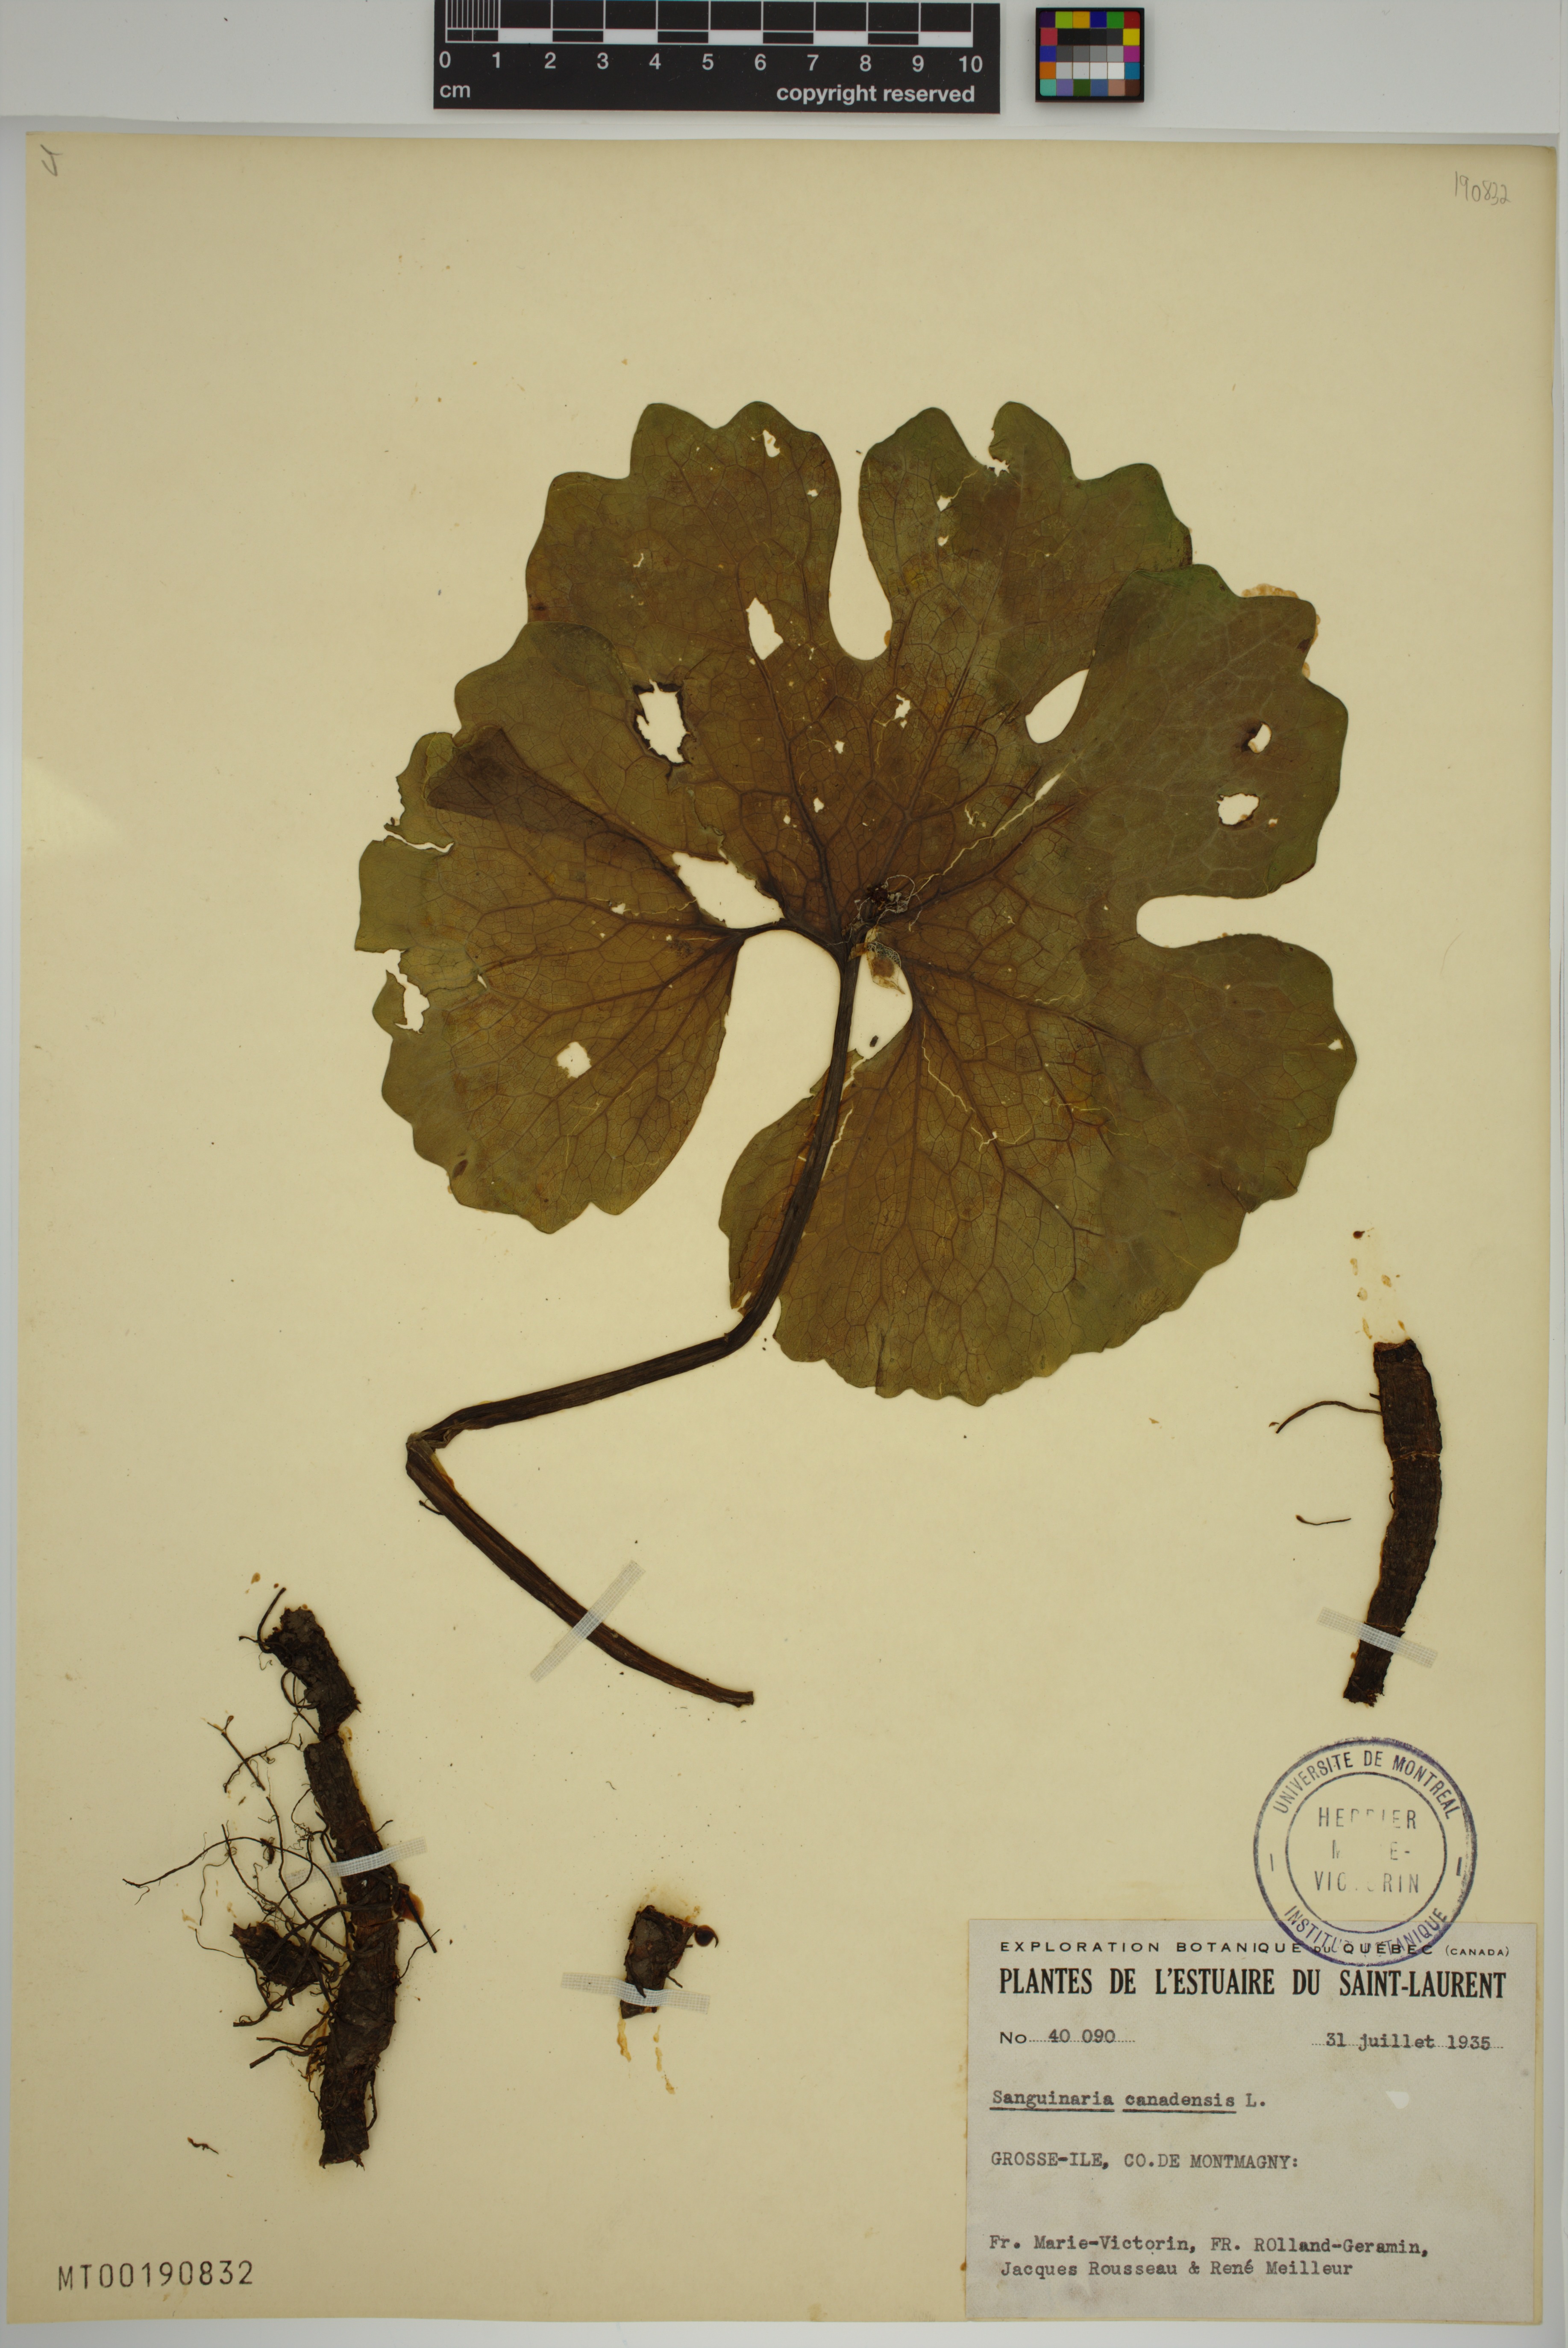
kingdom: Plantae
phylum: Tracheophyta
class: Magnoliopsida
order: Ranunculales
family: Papaveraceae
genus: Sanguinaria
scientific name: Sanguinaria canadensis
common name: Bloodroot
